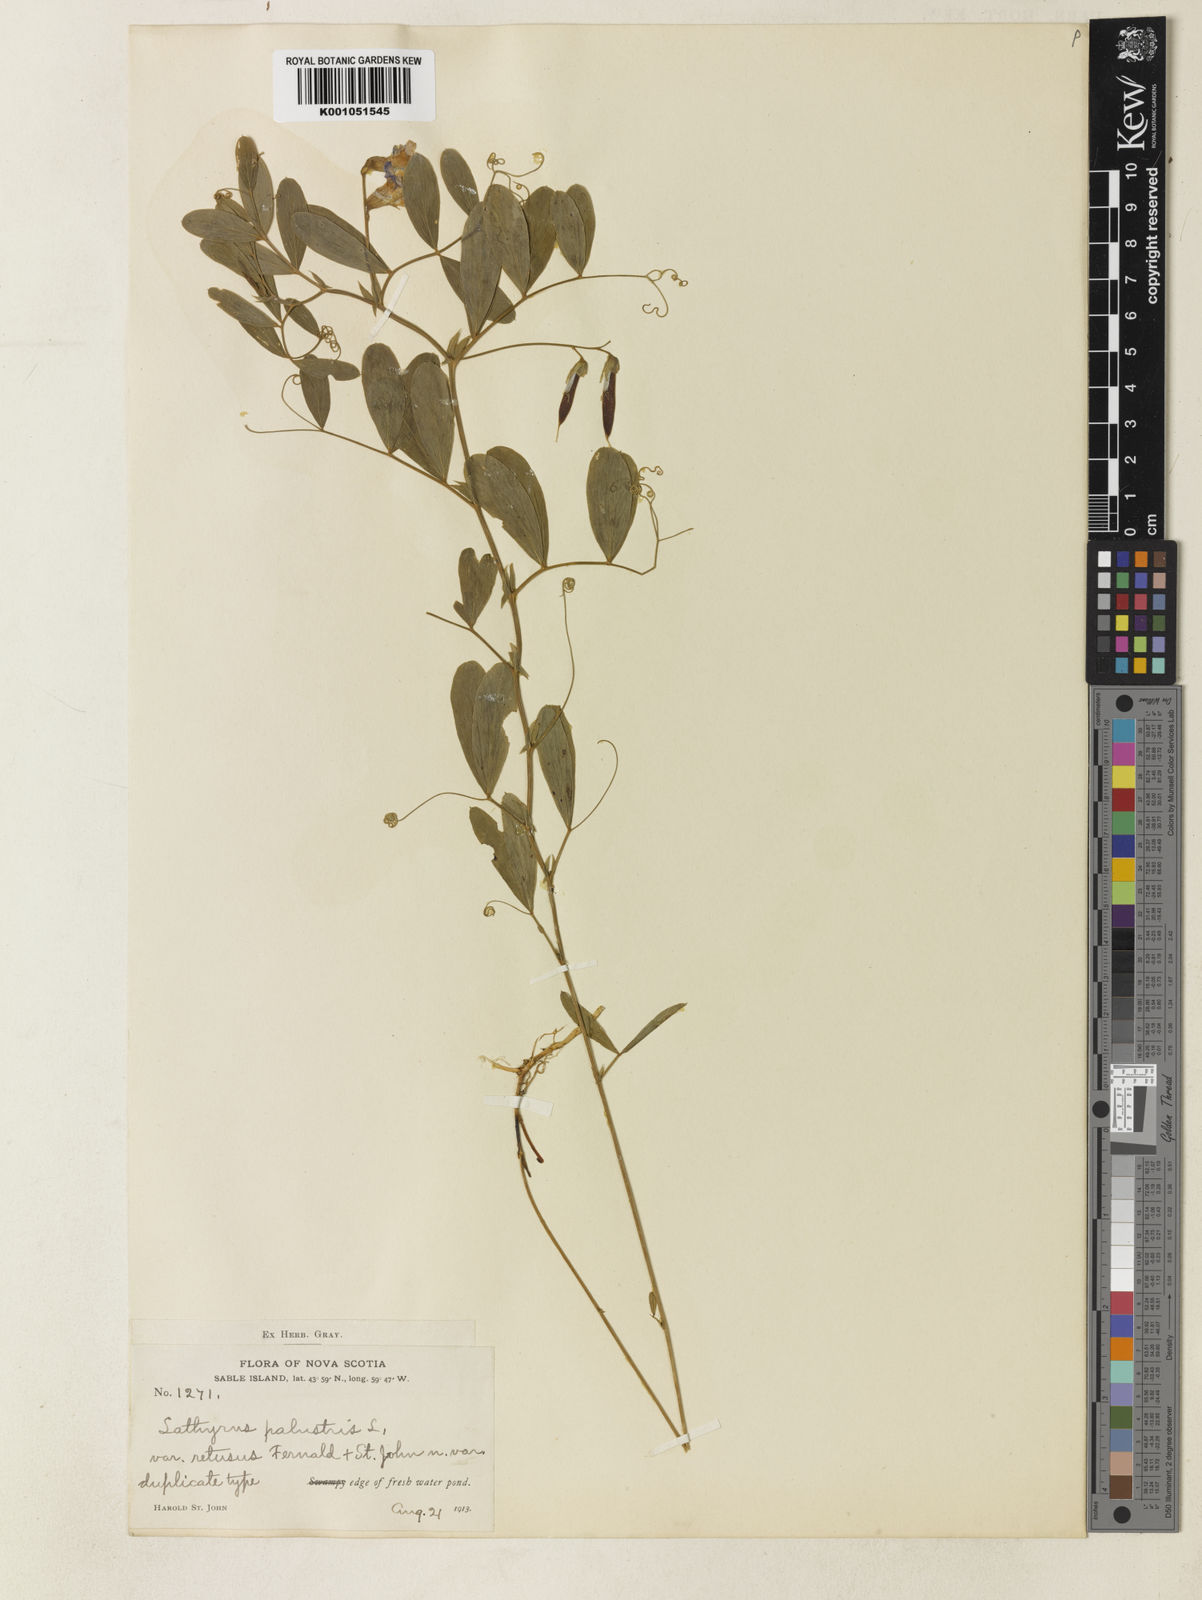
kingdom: Plantae
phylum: Tracheophyta
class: Magnoliopsida
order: Fabales
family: Fabaceae
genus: Lathyrus
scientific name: Lathyrus palustris
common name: Marsh pea
